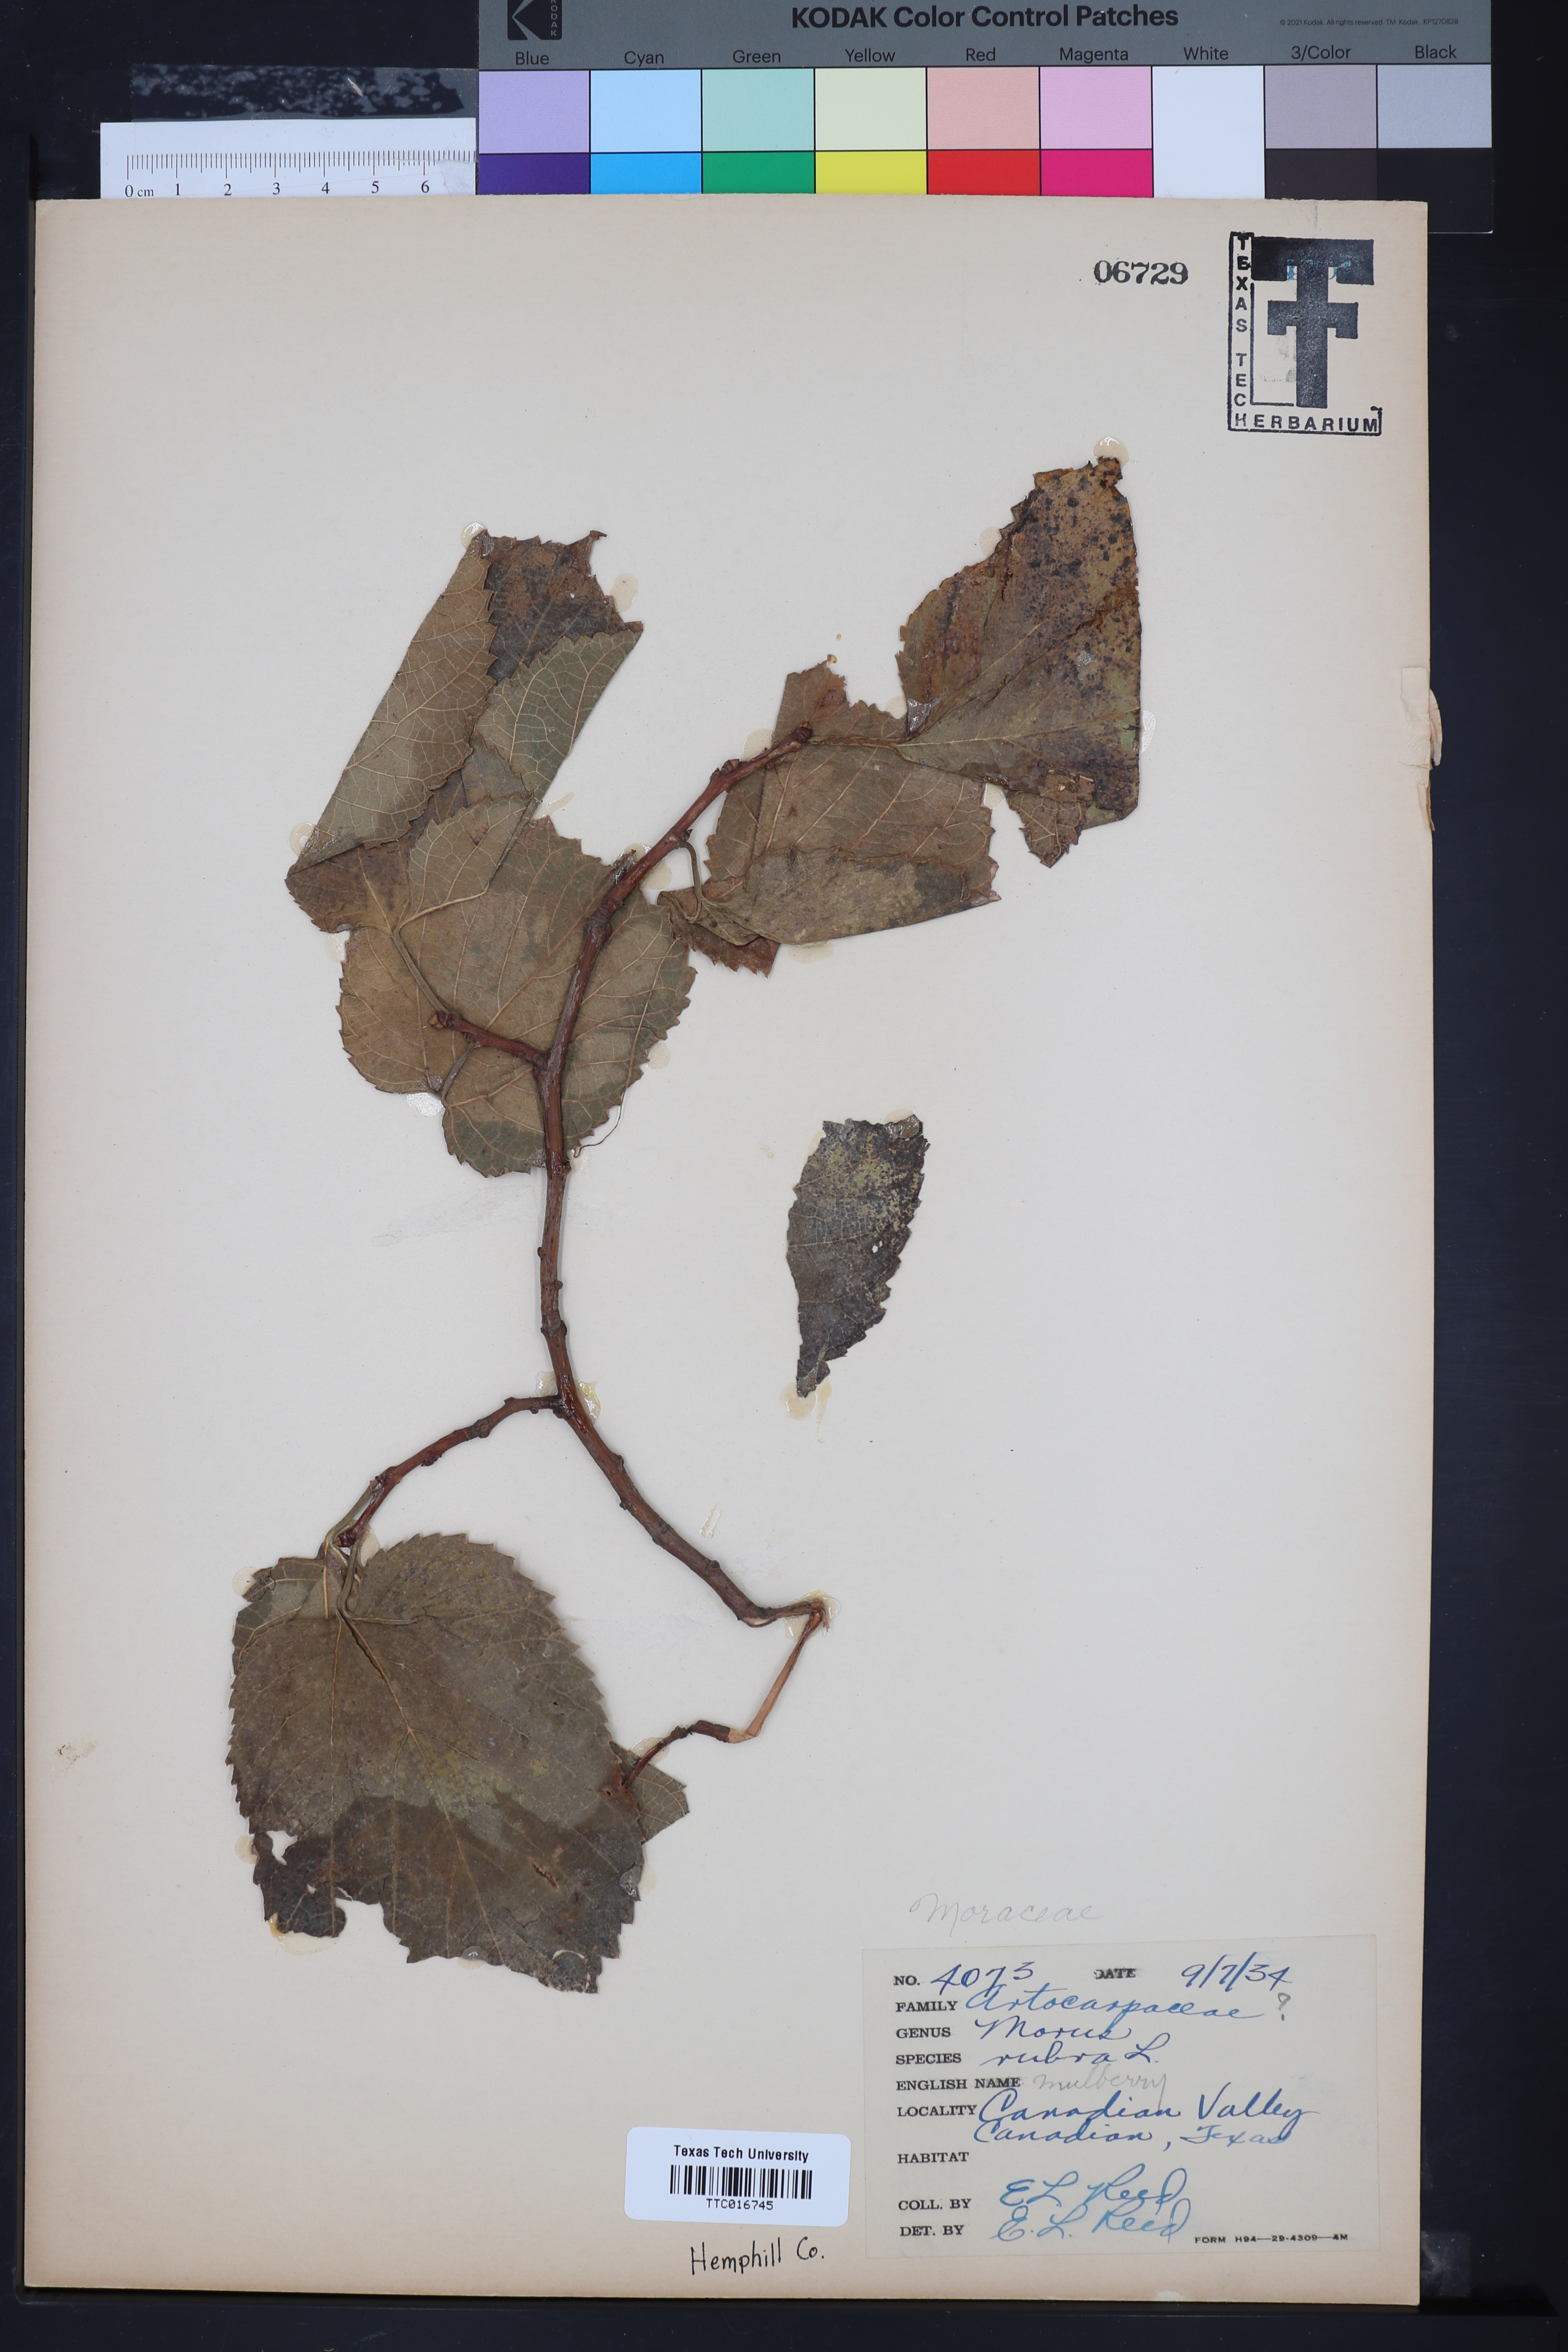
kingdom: Plantae
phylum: Tracheophyta
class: Magnoliopsida
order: Rosales
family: Moraceae
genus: Morus
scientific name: Morus rubra
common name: Red mulberry
